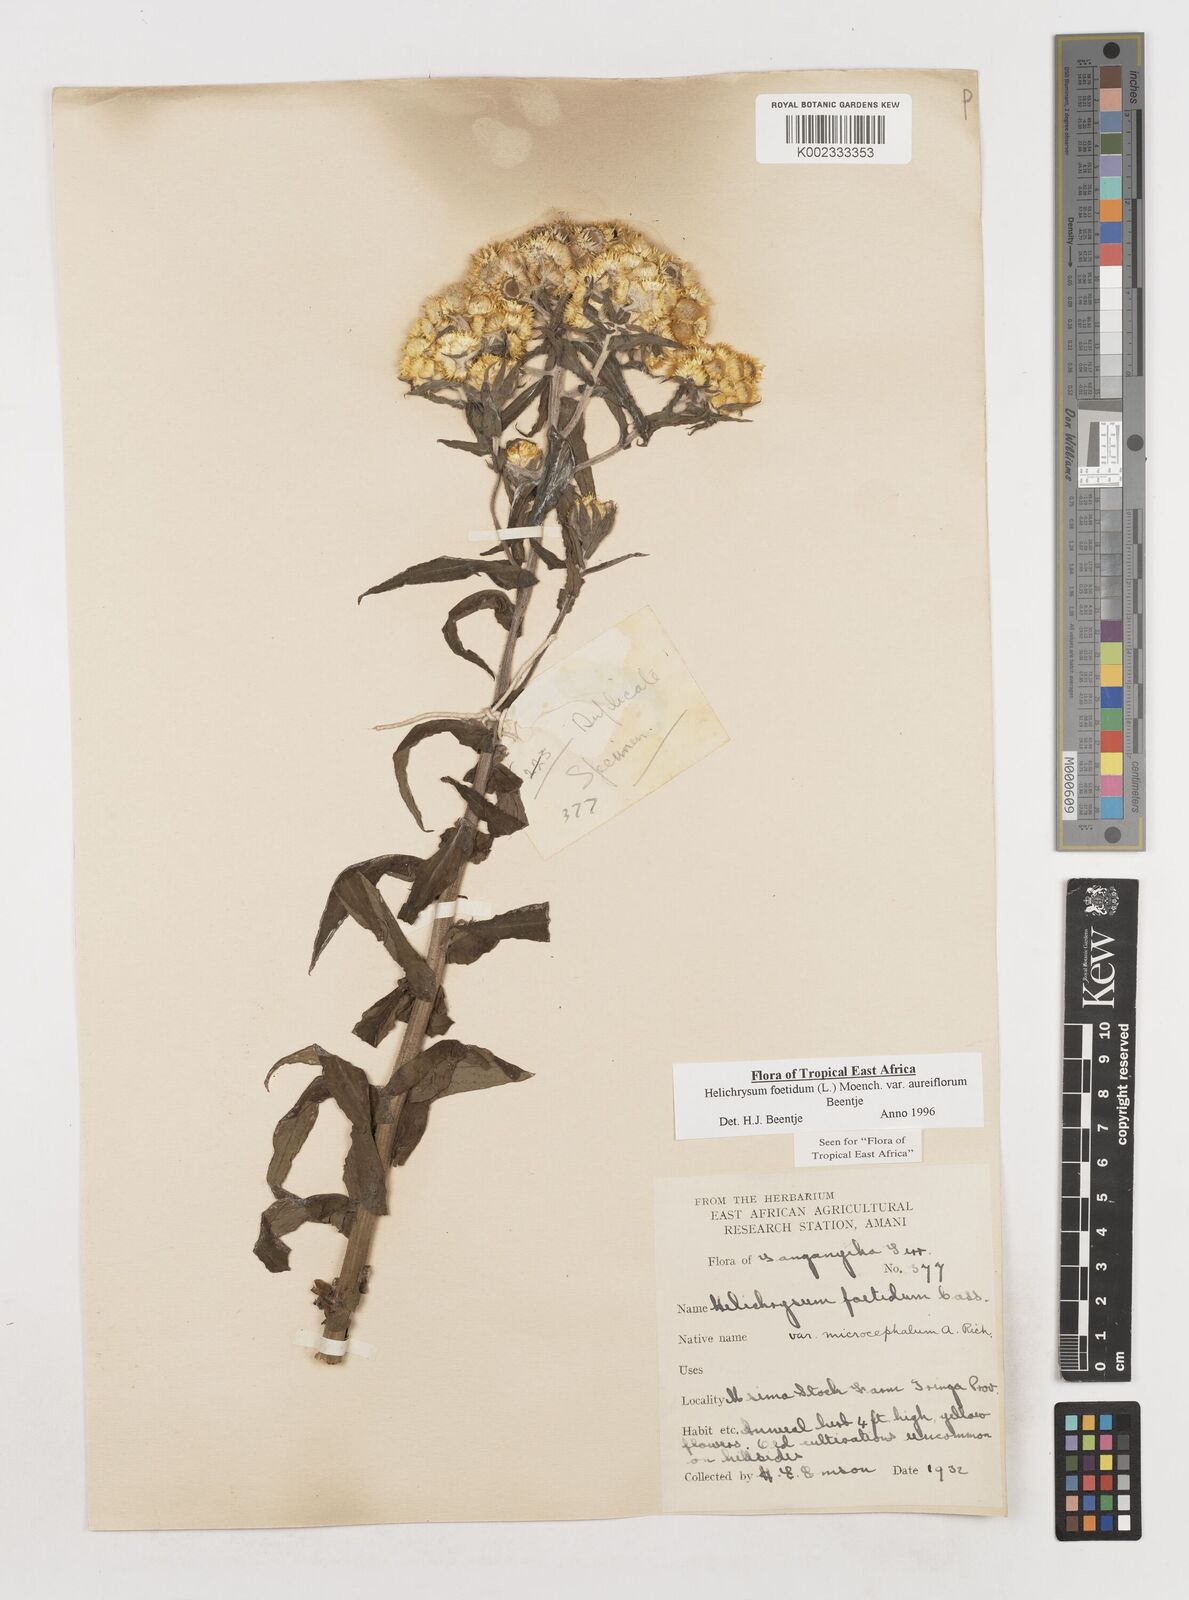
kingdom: Plantae
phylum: Tracheophyta
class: Magnoliopsida
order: Asterales
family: Asteraceae
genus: Helichrysum
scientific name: Helichrysum foetidum
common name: Stinking everlasting
